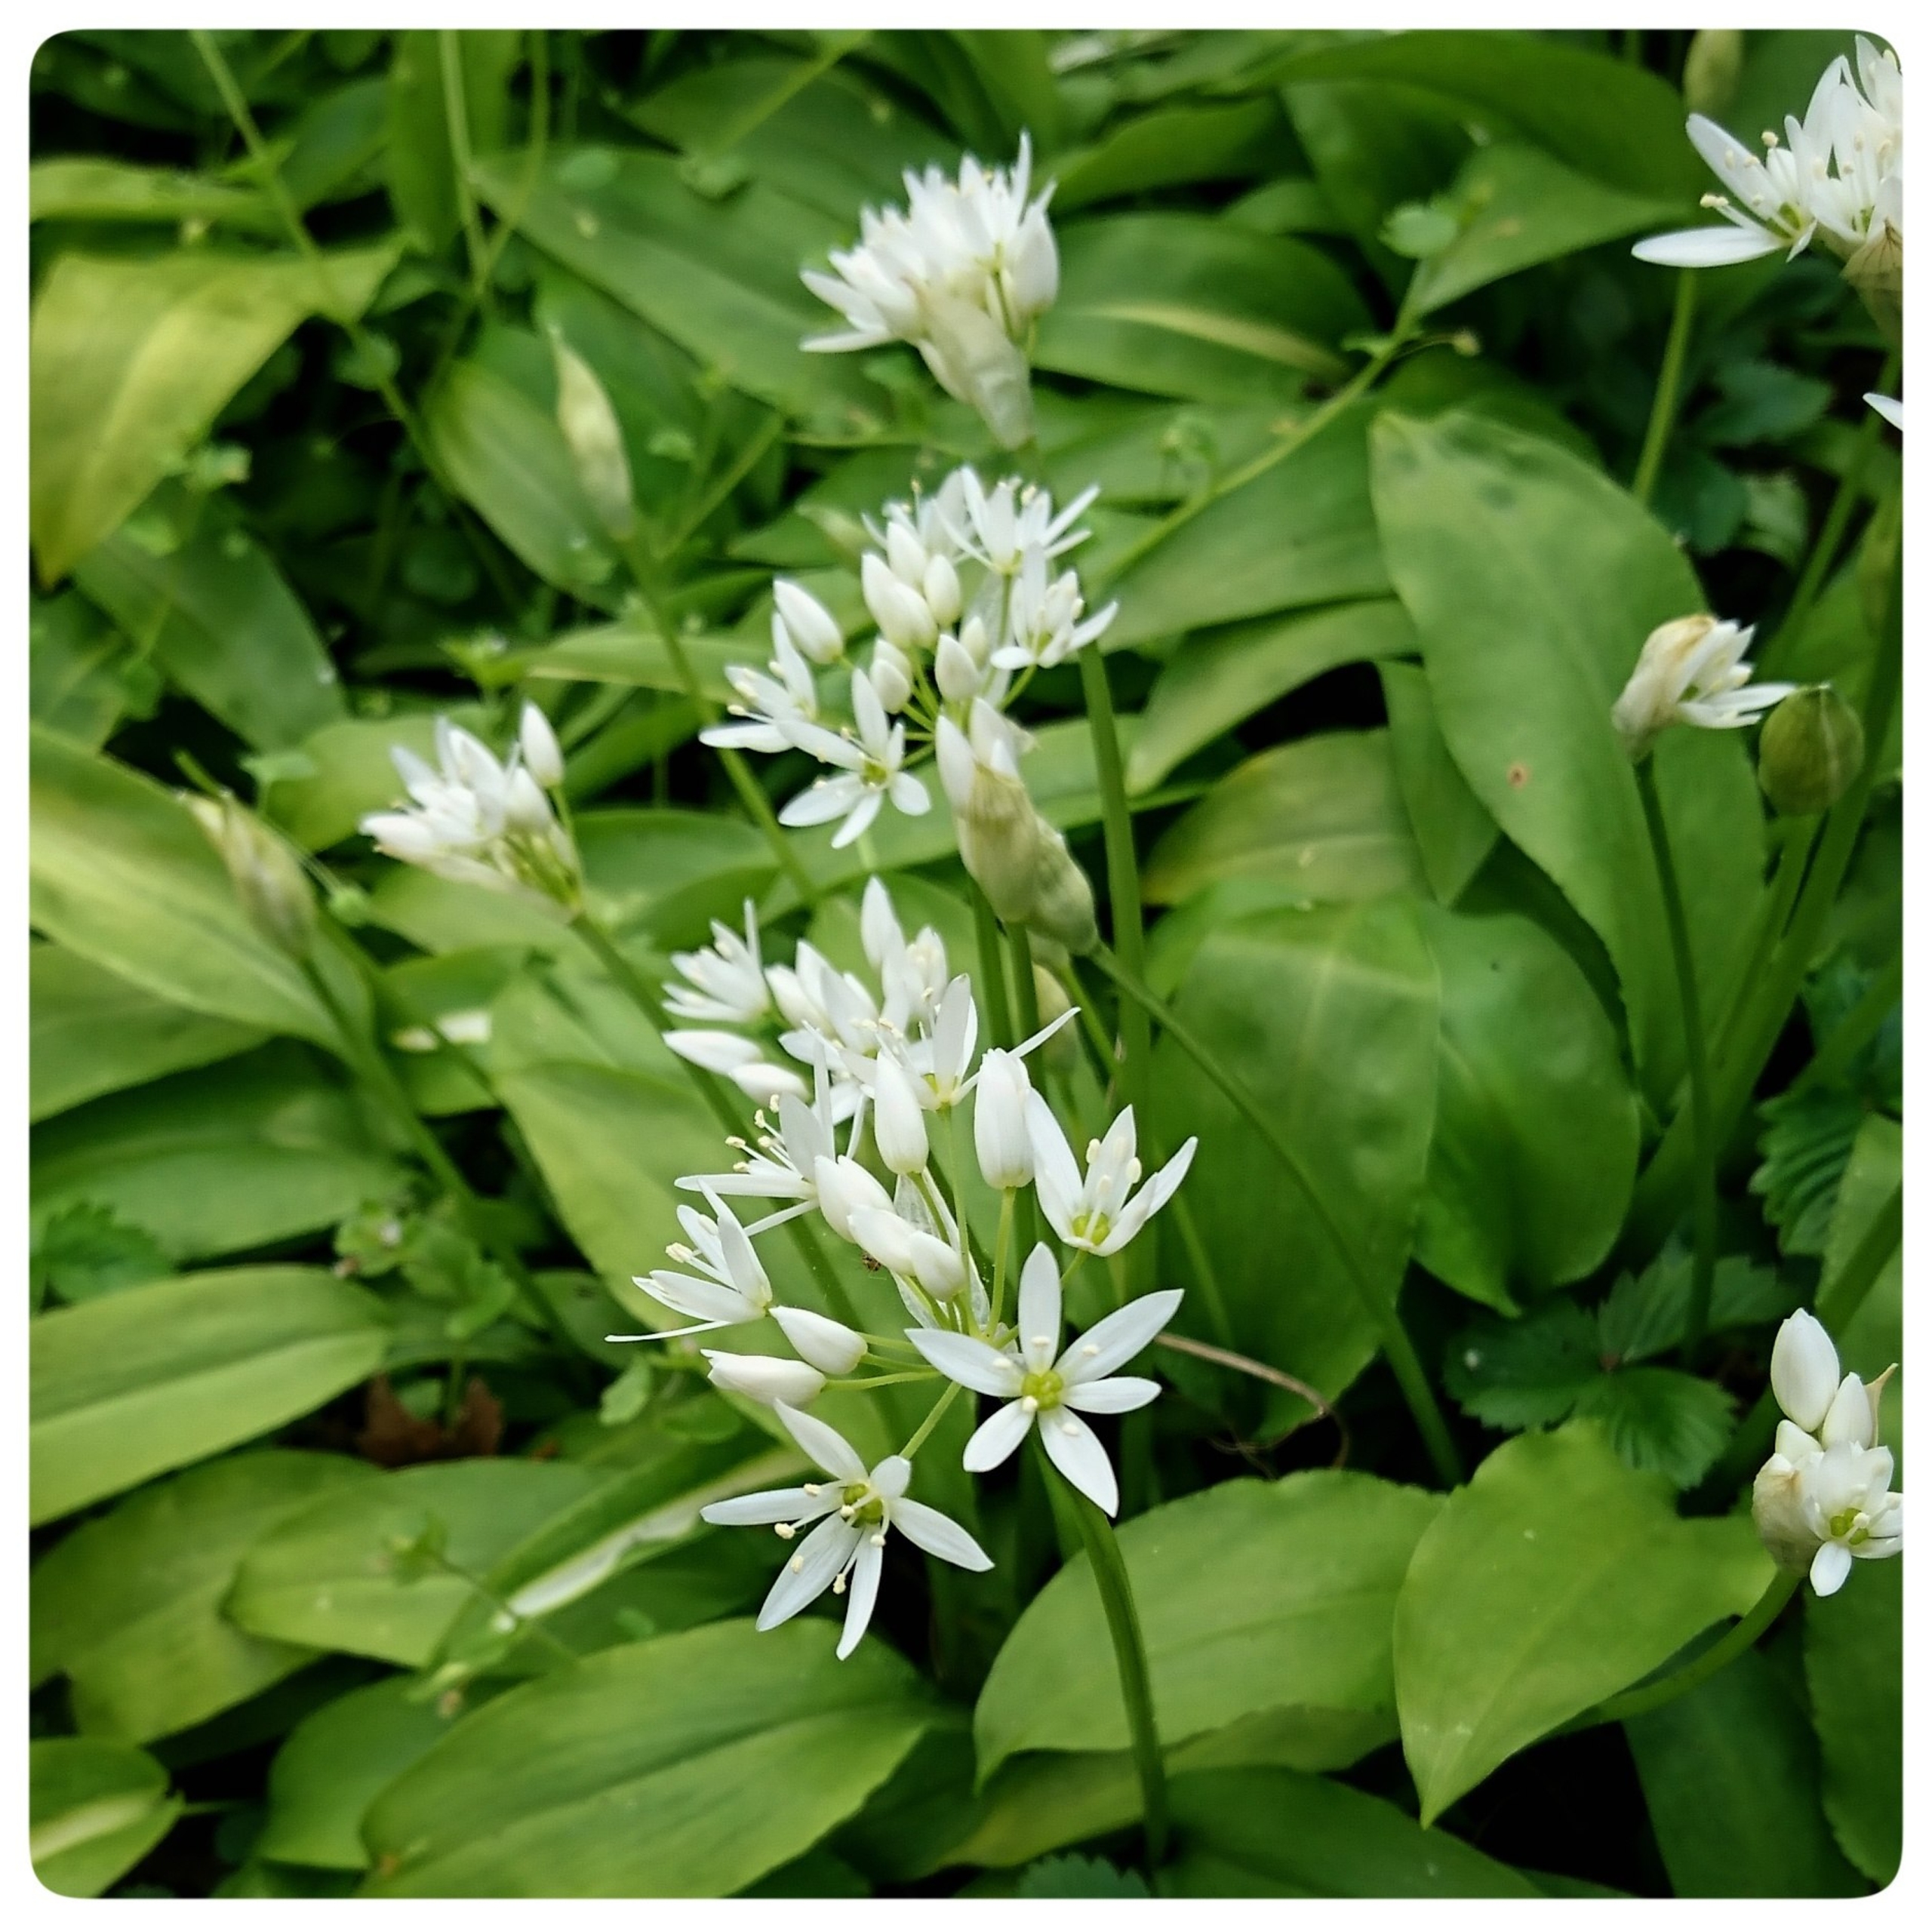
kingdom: Plantae
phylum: Tracheophyta
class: Liliopsida
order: Asparagales
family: Amaryllidaceae
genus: Allium
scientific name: Allium ursinum
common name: Rams-løg
